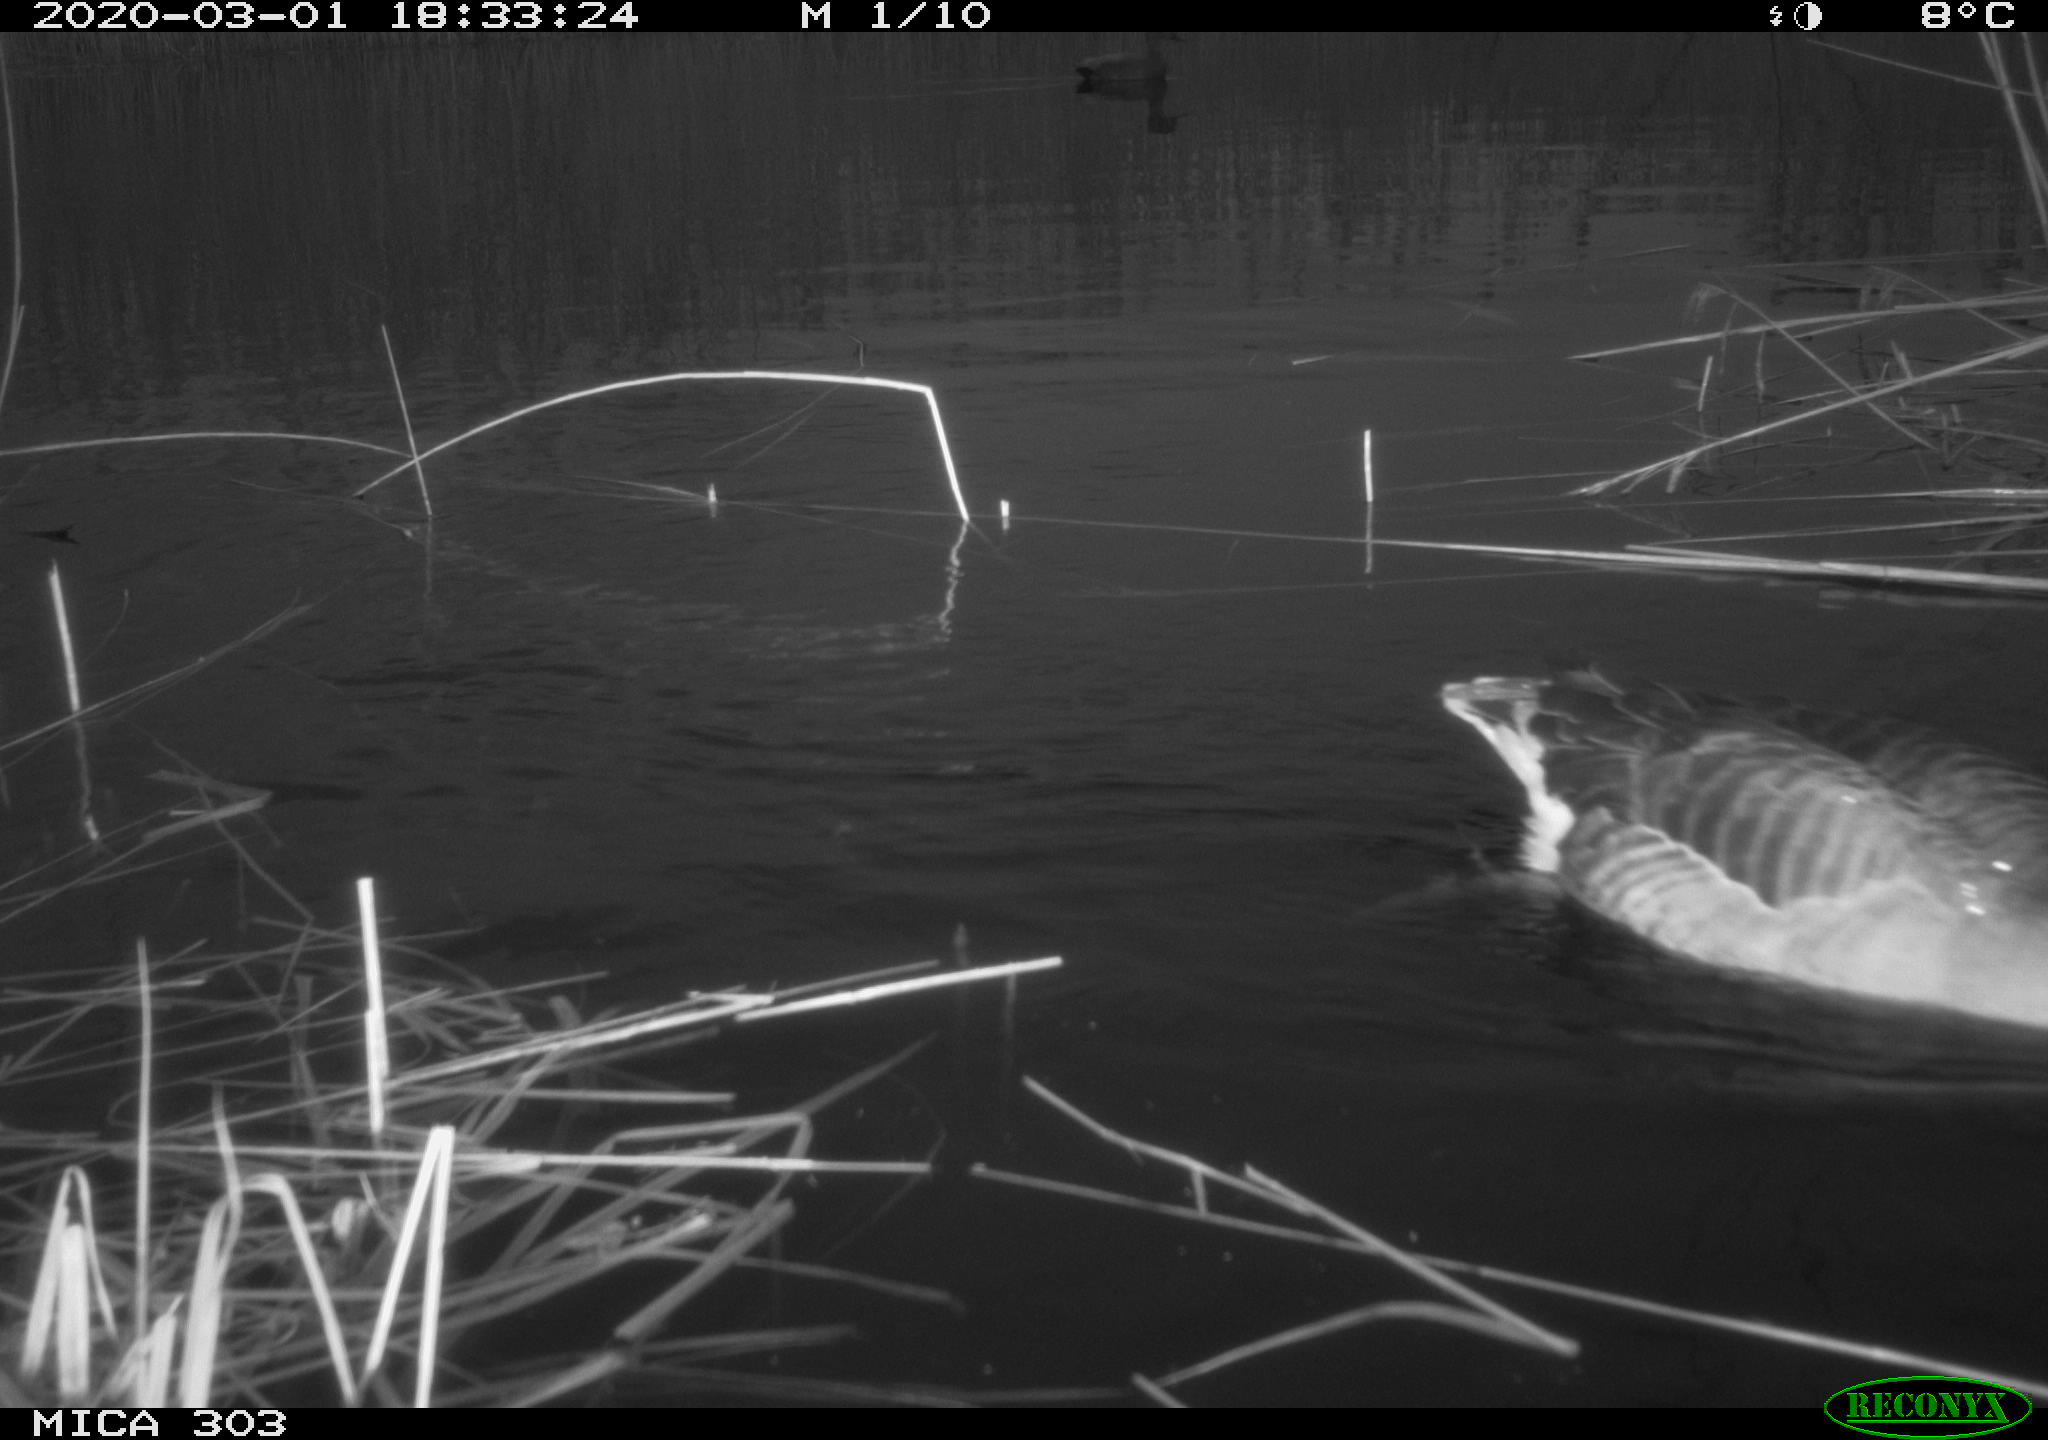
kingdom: Animalia
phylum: Chordata
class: Aves
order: Anseriformes
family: Anatidae
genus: Mareca
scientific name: Mareca strepera
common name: Gadwall
